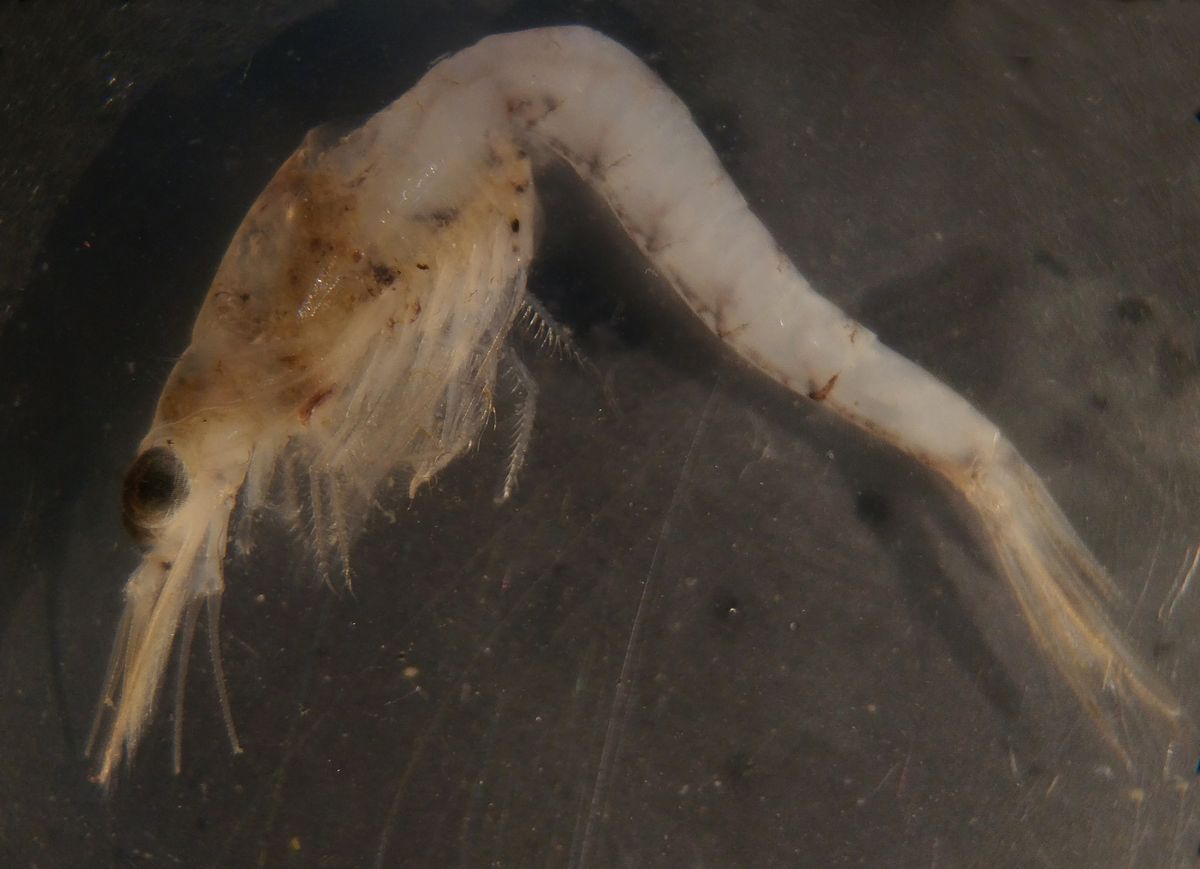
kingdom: Animalia
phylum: Arthropoda
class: Malacostraca
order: Mysida
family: Mysidae
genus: Mysis
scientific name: Mysis mixta
